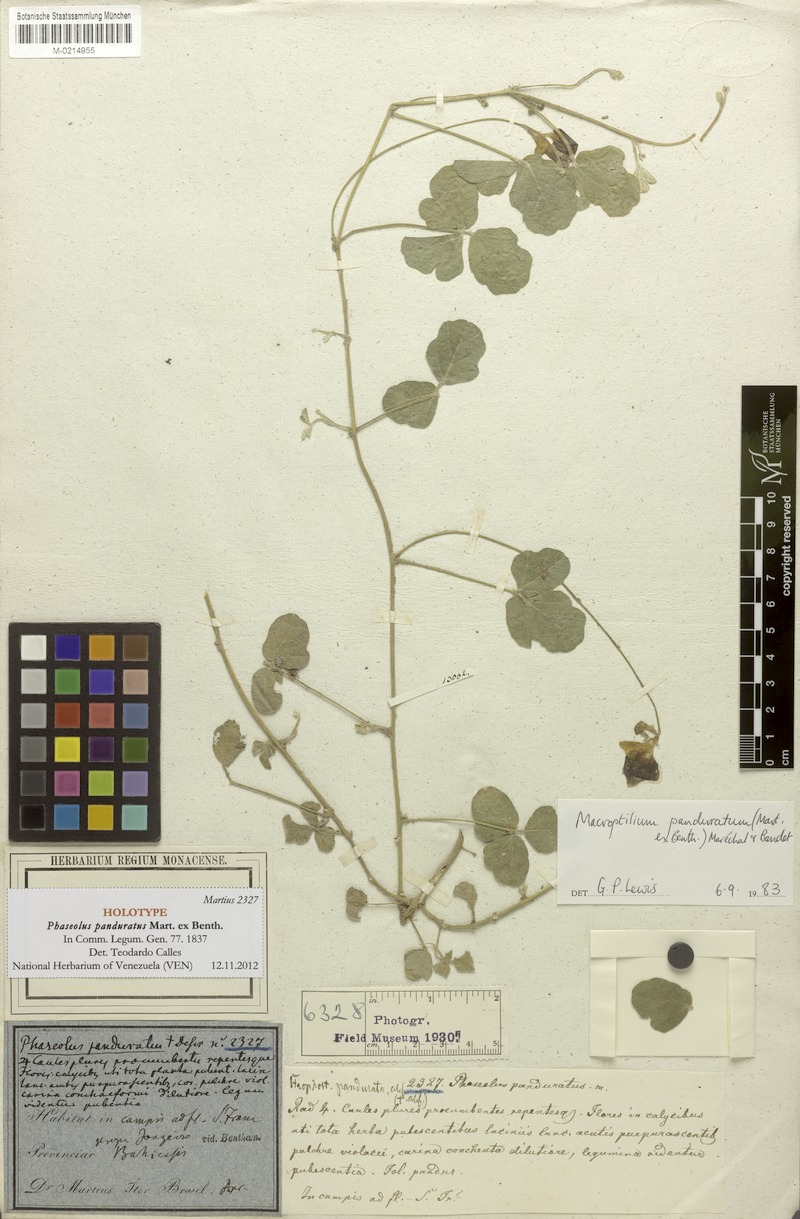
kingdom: Plantae
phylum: Tracheophyta
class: Magnoliopsida
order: Fabales
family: Fabaceae
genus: Macroptilium
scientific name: Macroptilium panduratum
